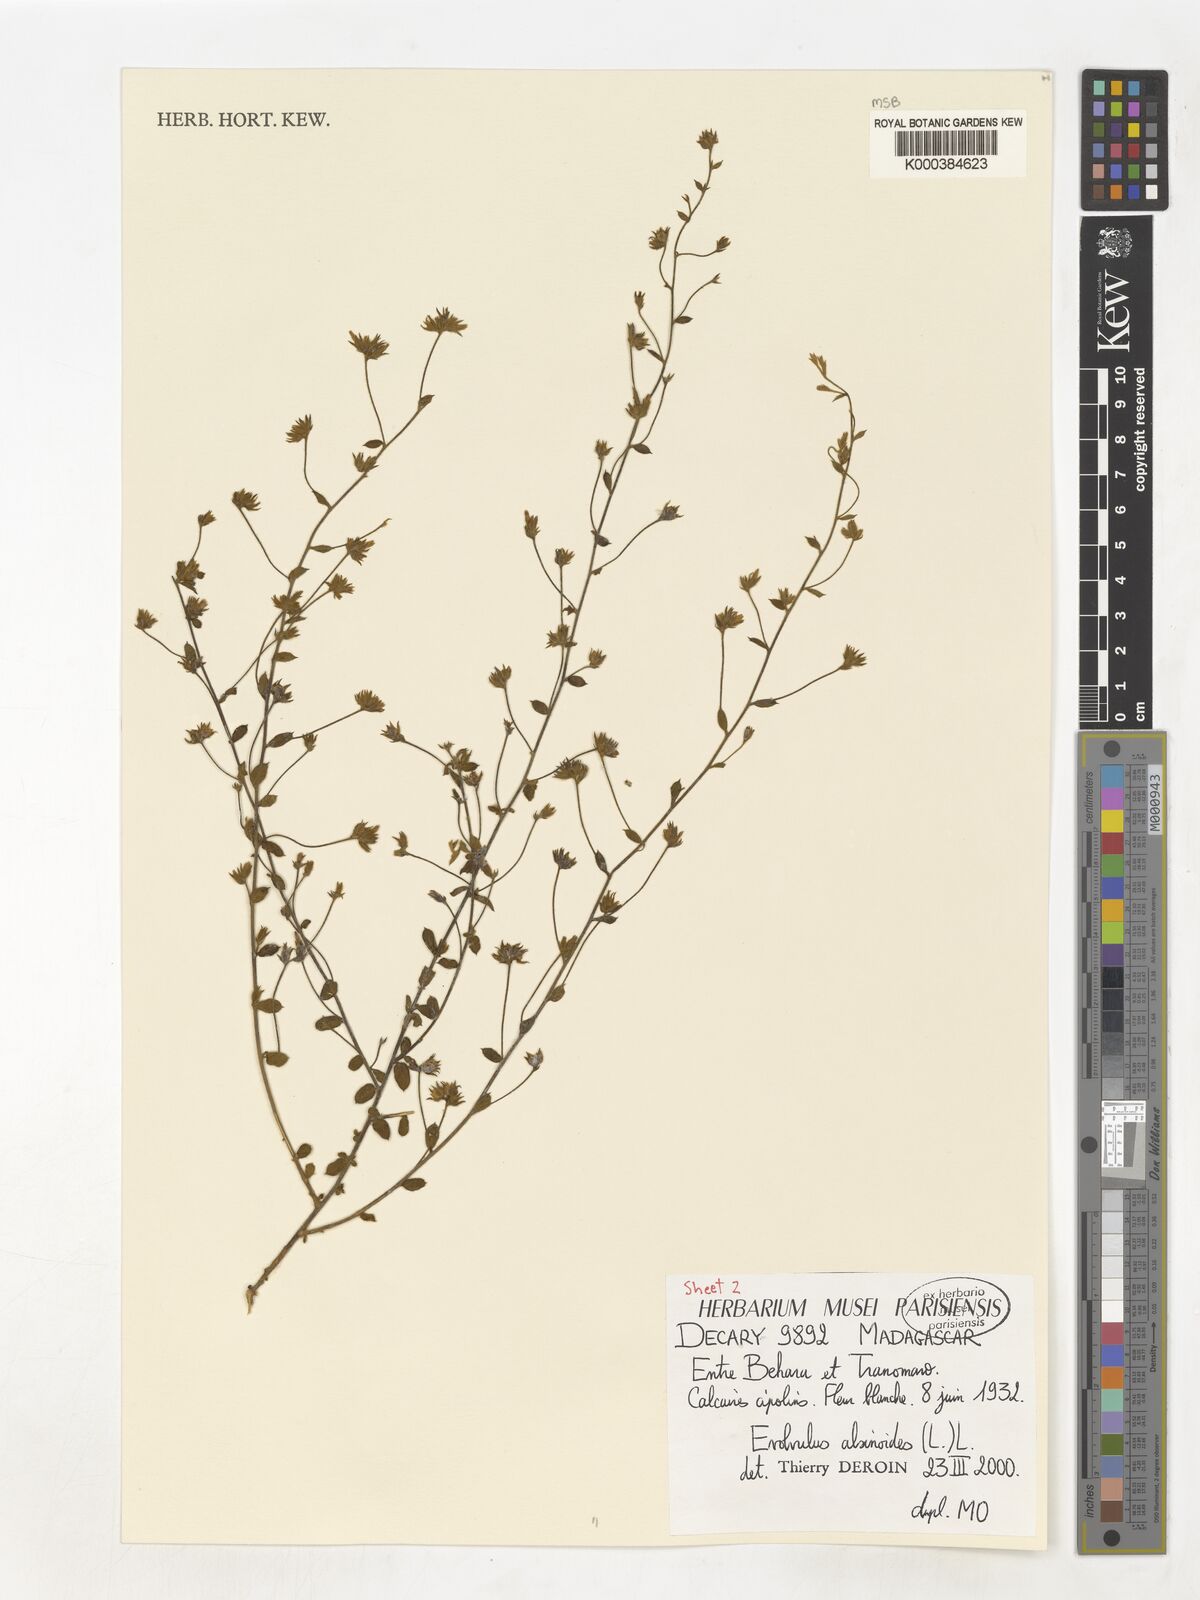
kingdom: Plantae
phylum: Tracheophyta
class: Magnoliopsida
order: Solanales
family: Convolvulaceae
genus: Evolvulus
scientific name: Evolvulus alsinoides
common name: Slender dwarf morning-glory
